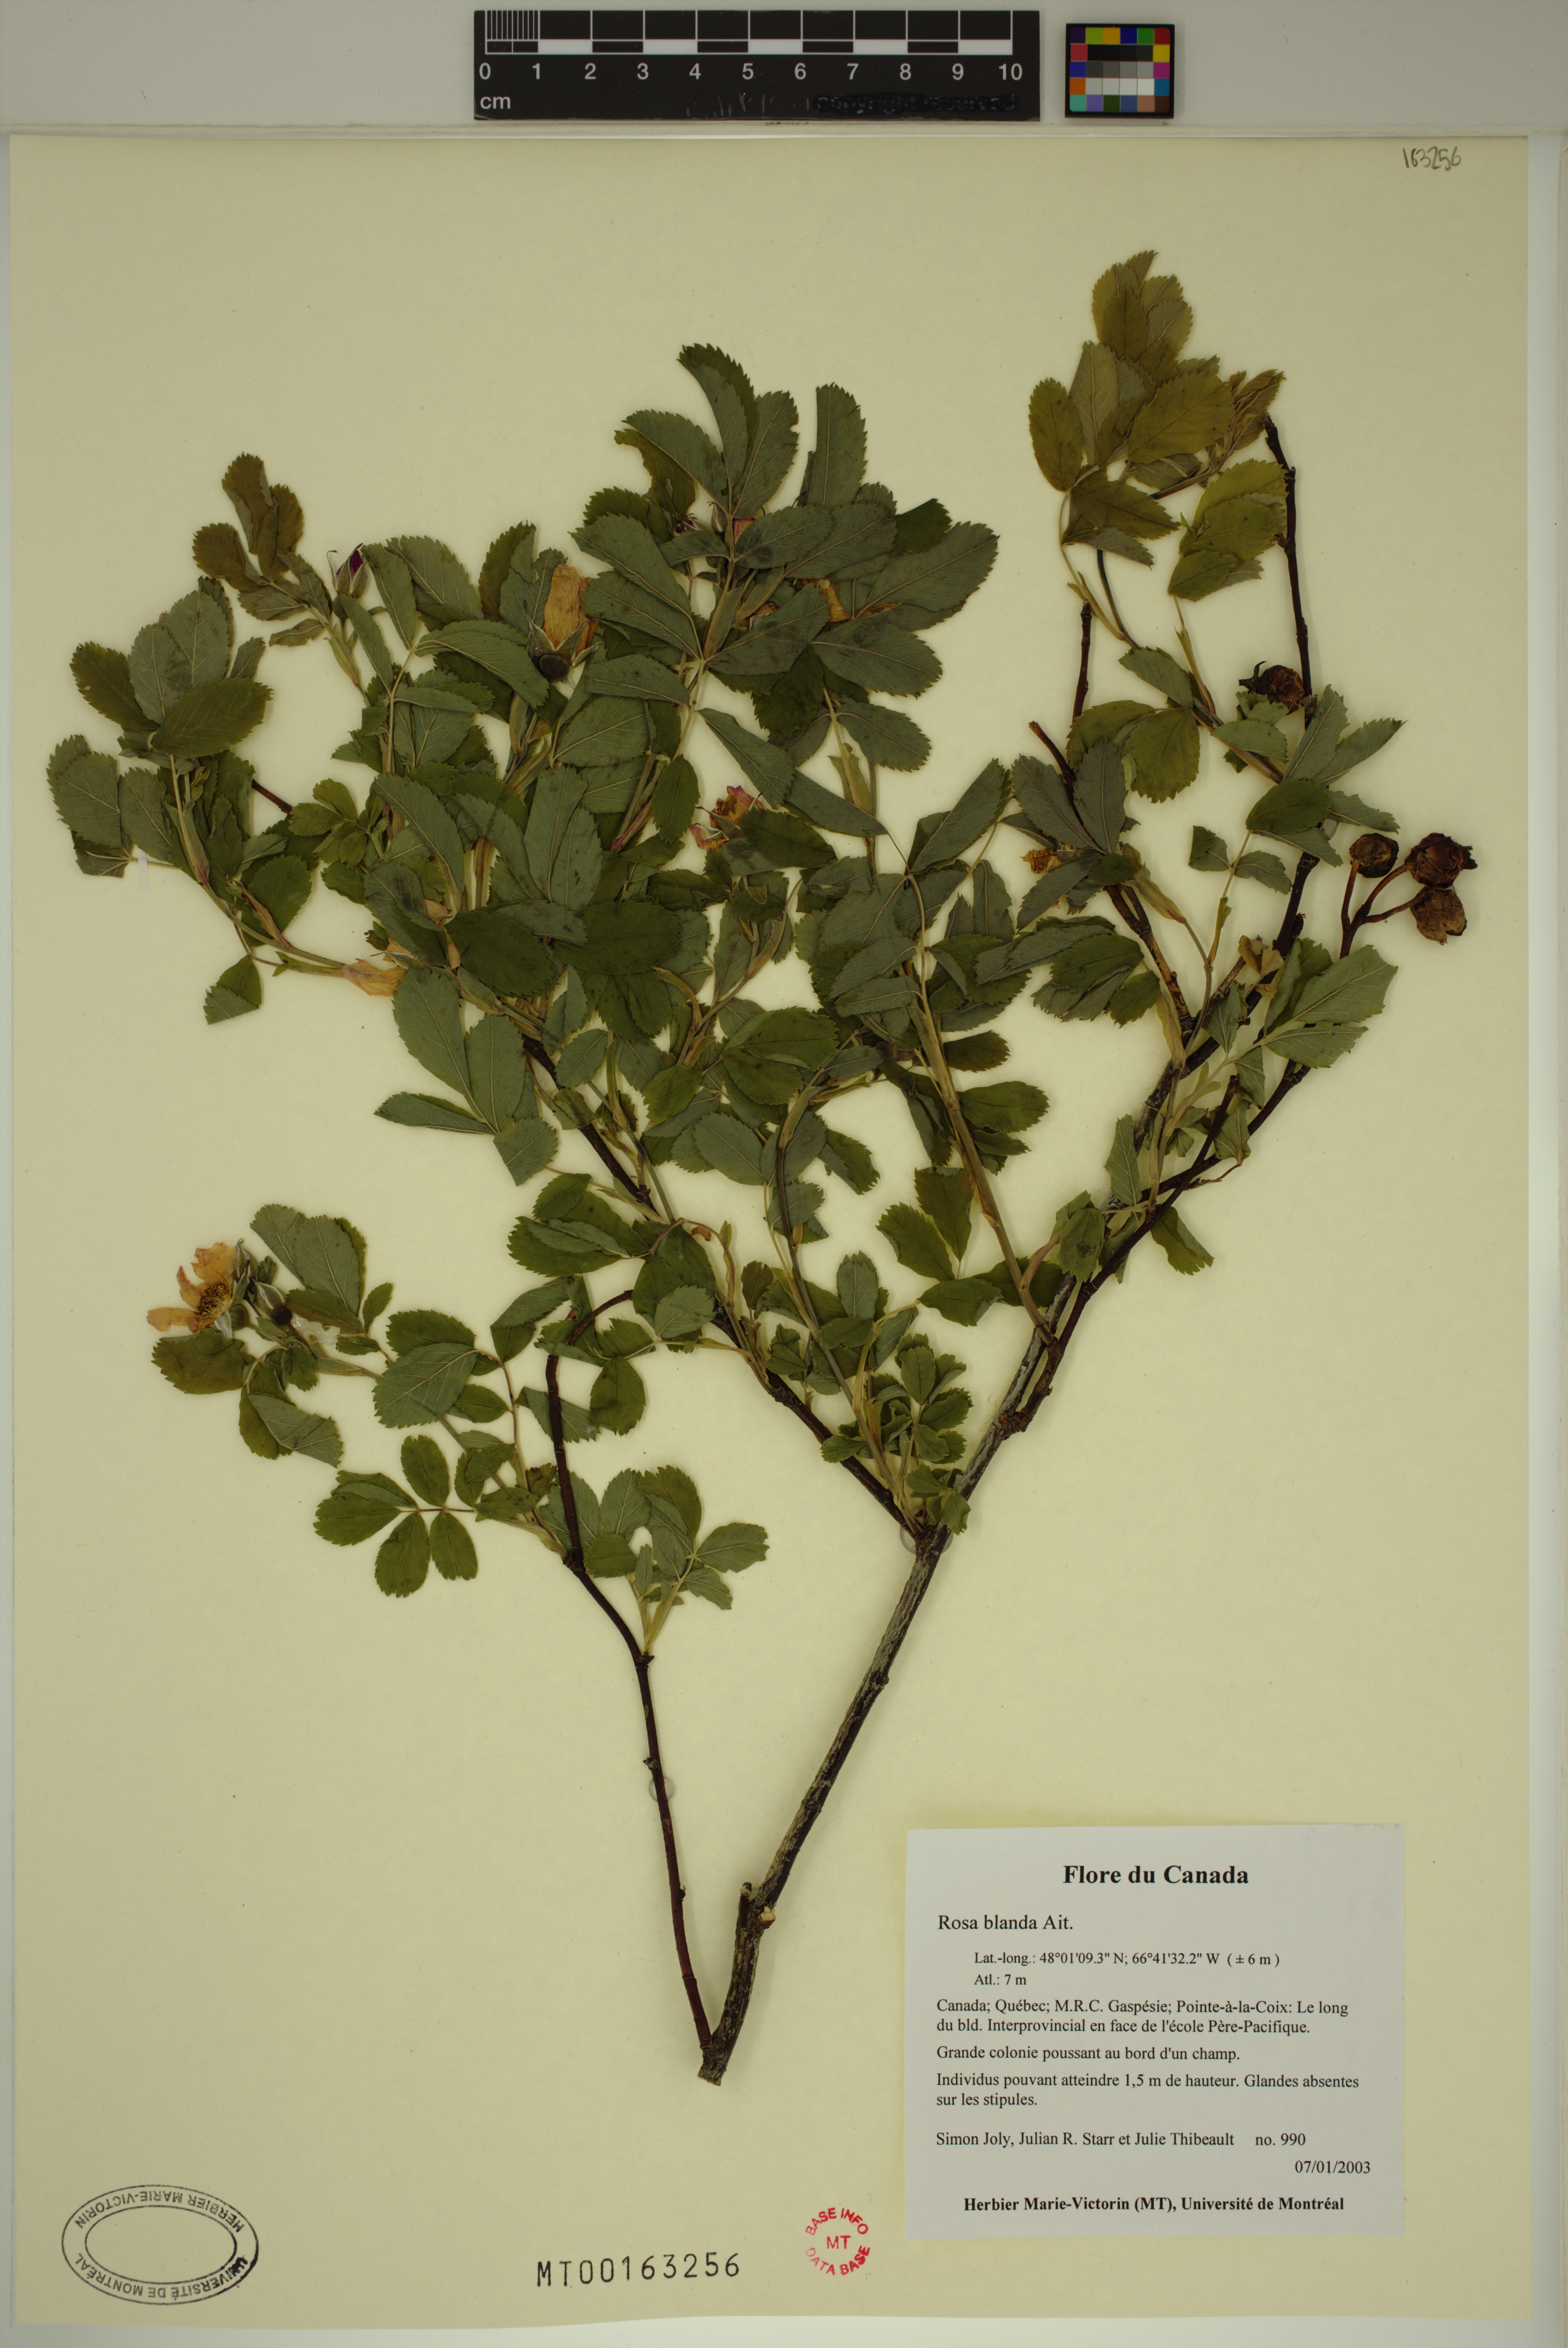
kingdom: Plantae
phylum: Tracheophyta
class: Magnoliopsida
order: Rosales
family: Rosaceae
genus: Rosa
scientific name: Rosa blanda
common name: Smooth rose
